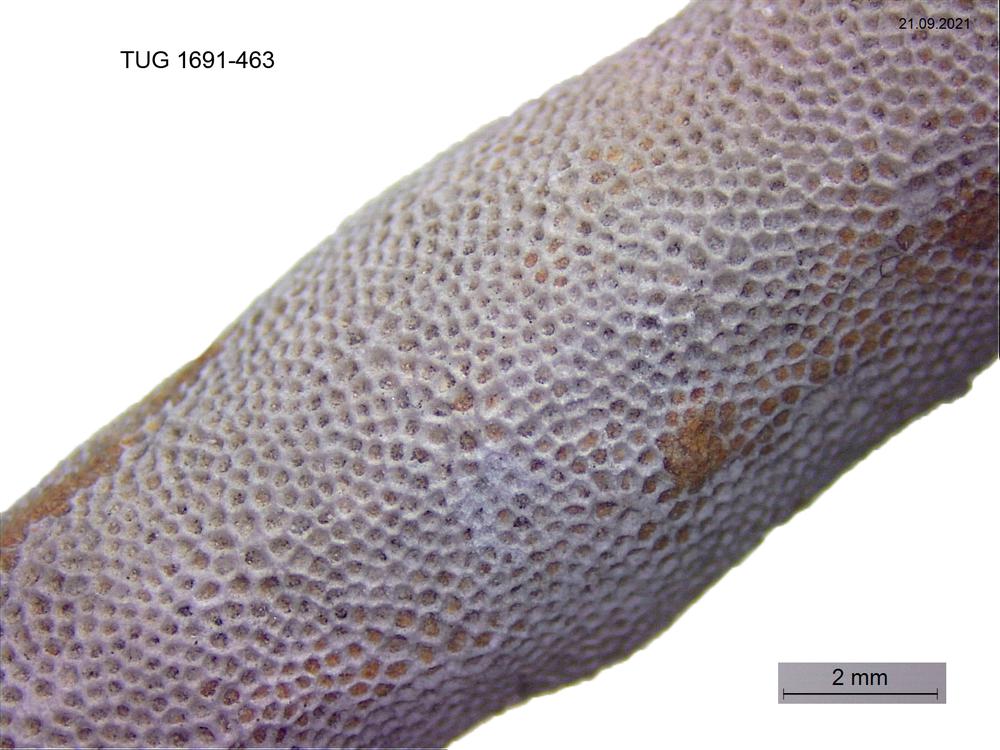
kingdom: Animalia
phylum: Bryozoa
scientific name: Bryozoa
